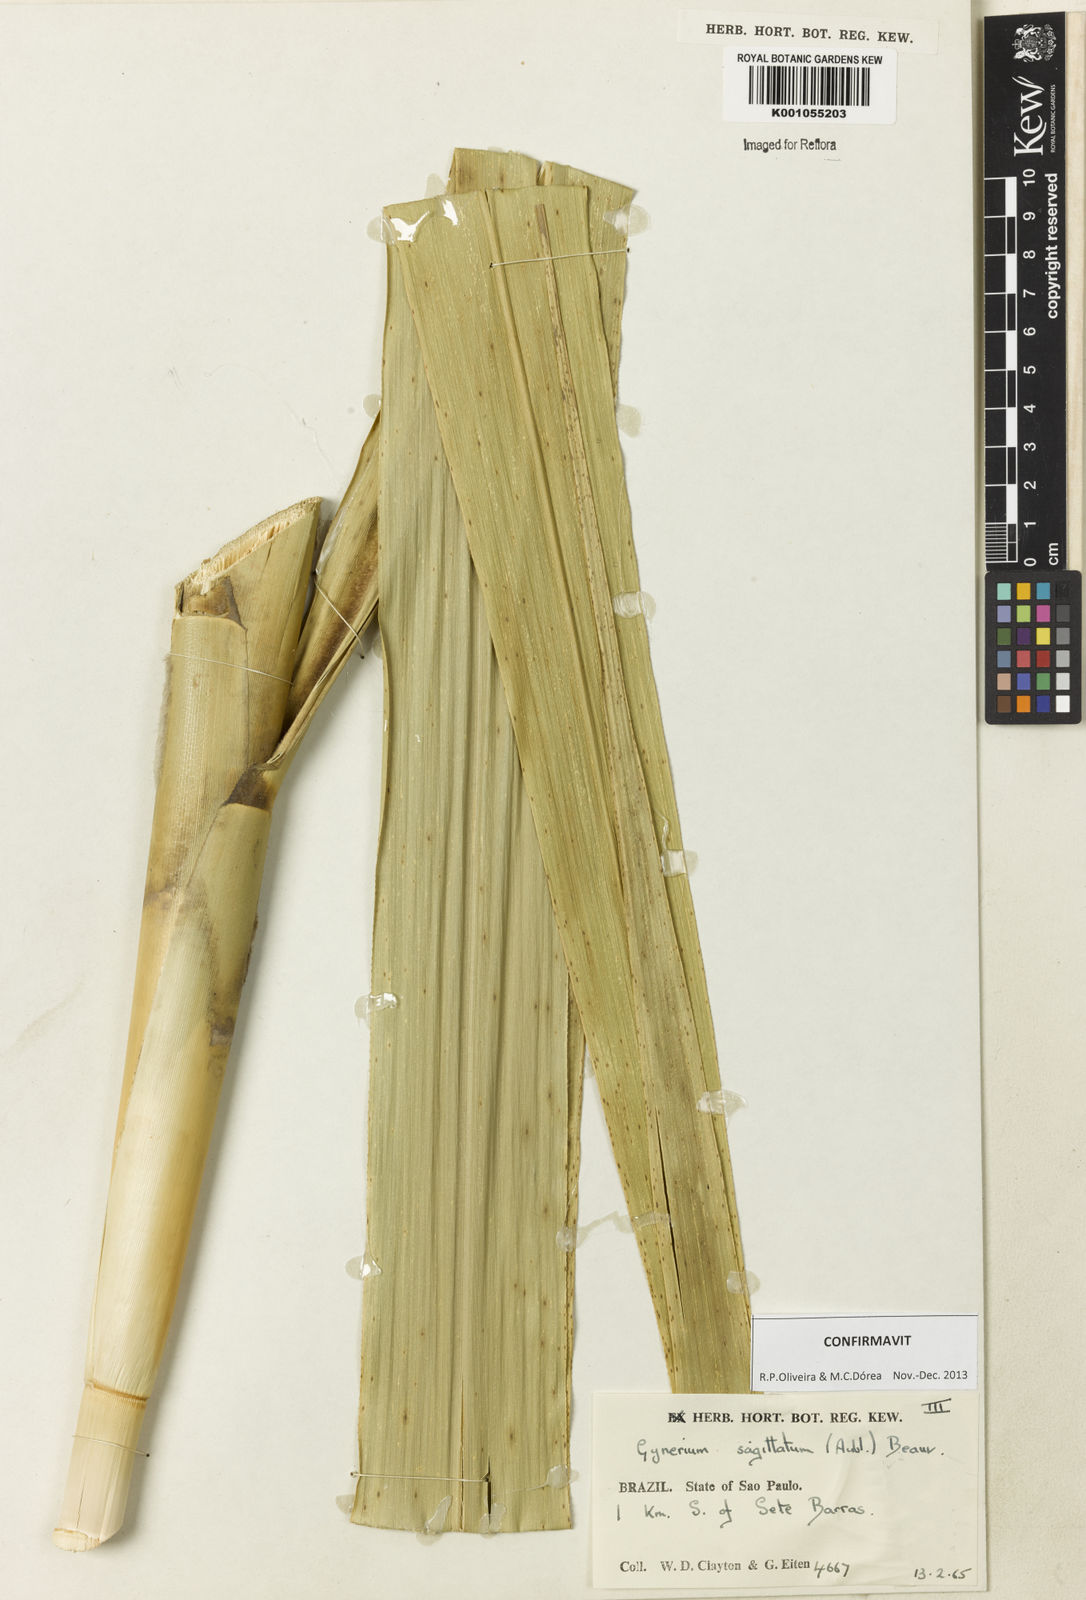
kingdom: Plantae
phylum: Tracheophyta
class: Liliopsida
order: Poales
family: Poaceae
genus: Gynerium
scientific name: Gynerium sagittatum
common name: Wild cane
